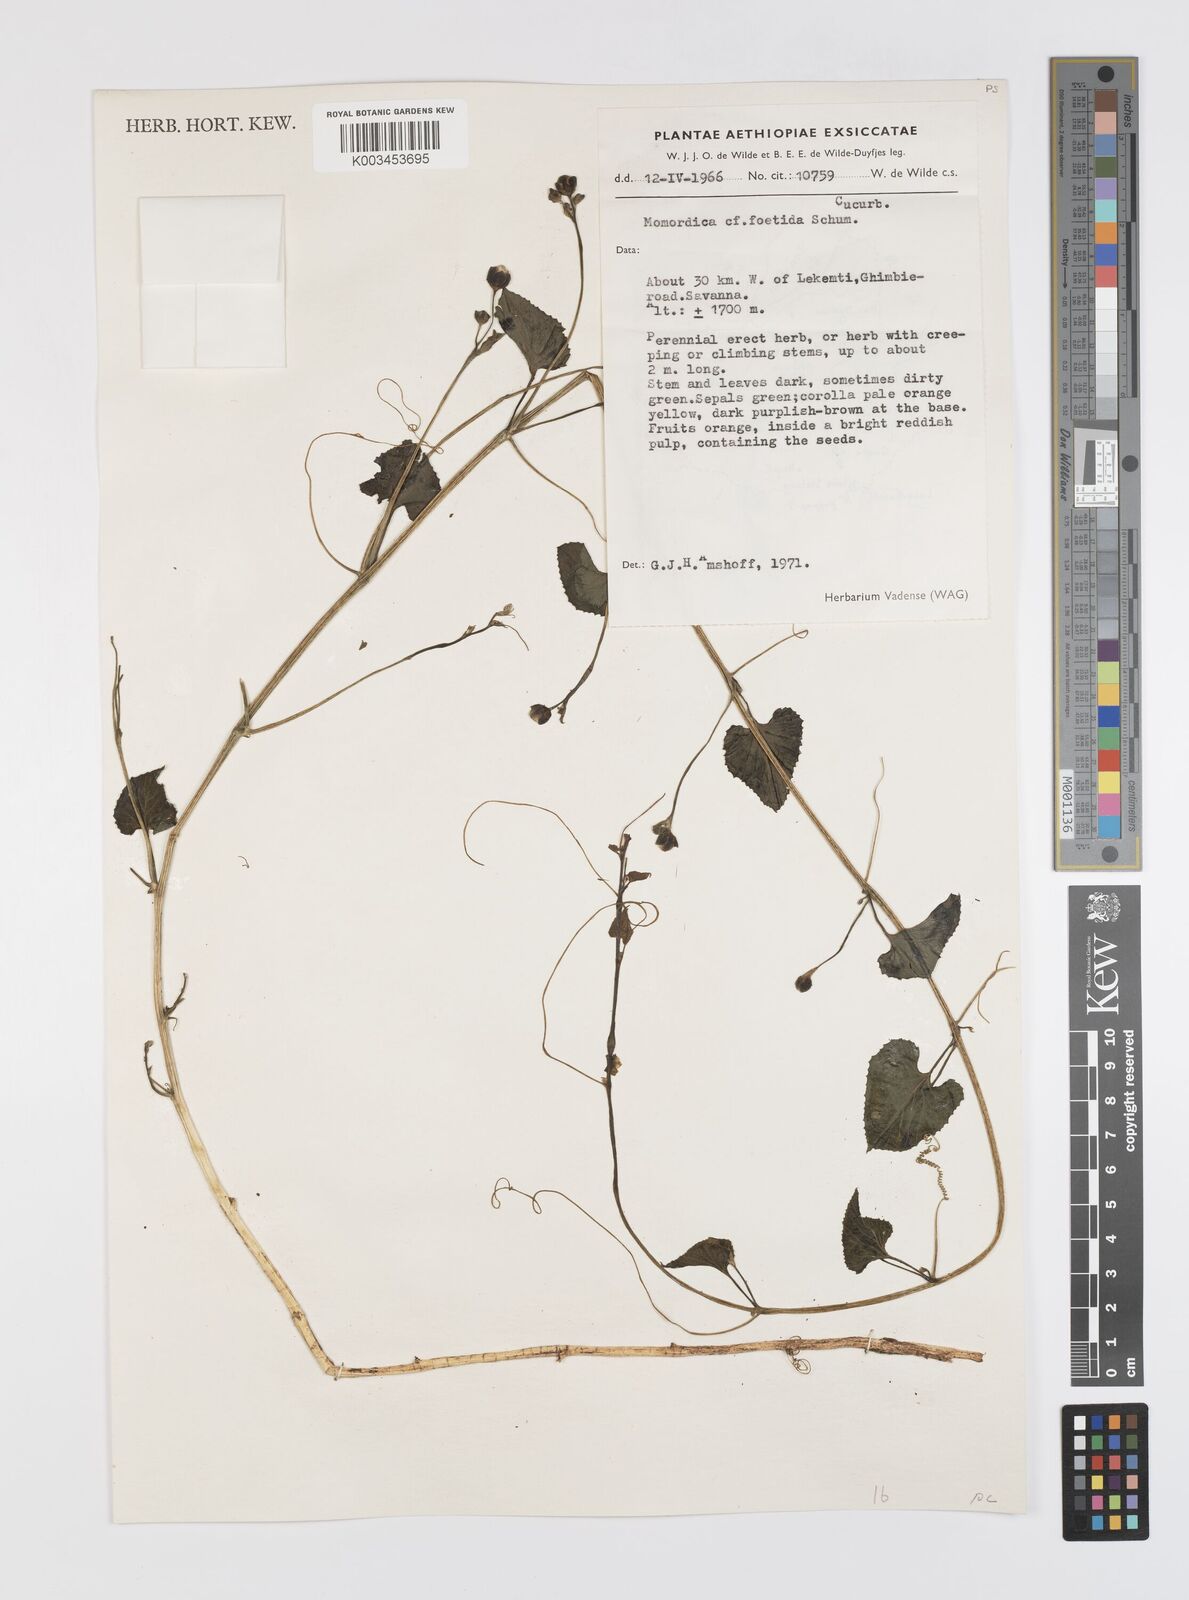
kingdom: Plantae
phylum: Tracheophyta
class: Magnoliopsida
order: Cucurbitales
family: Cucurbitaceae
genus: Momordica
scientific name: Momordica foetida
